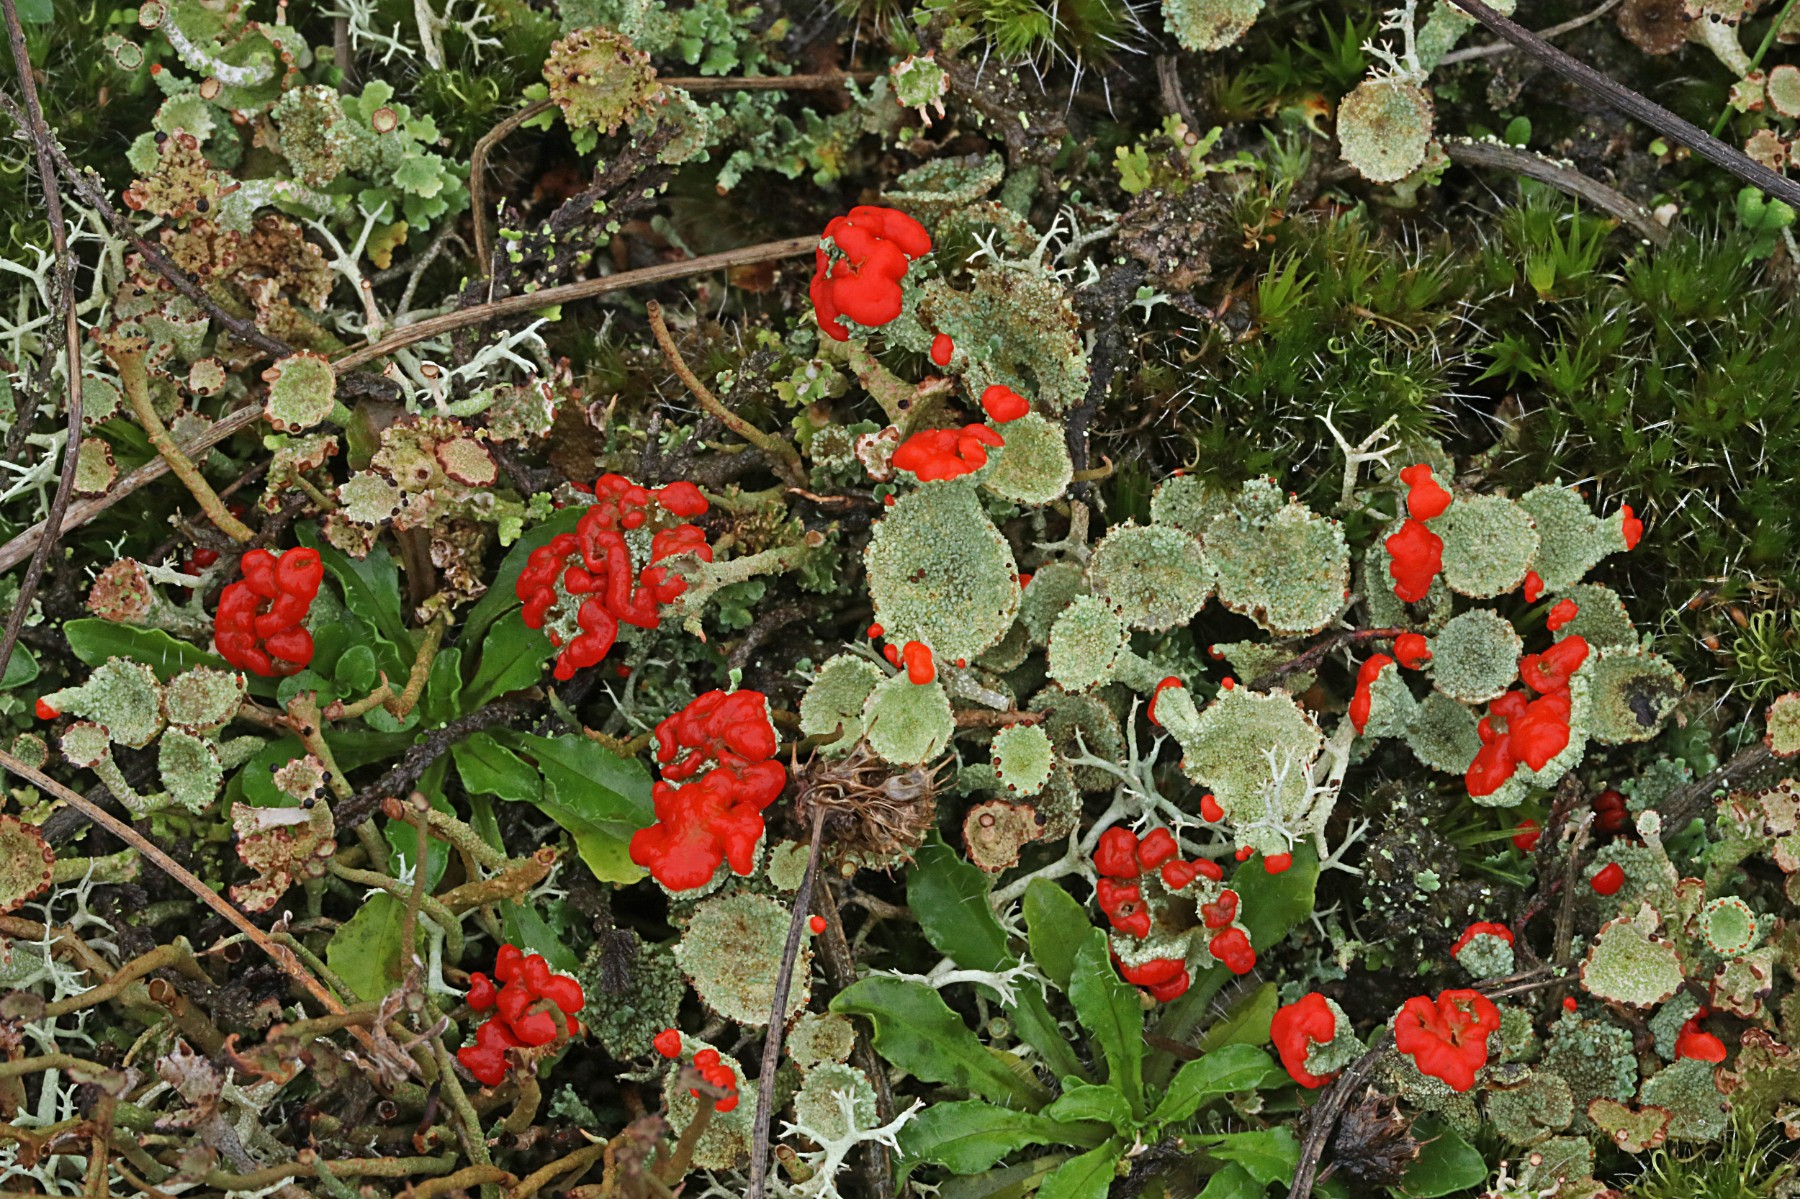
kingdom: Fungi
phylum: Ascomycota
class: Lecanoromycetes
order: Lecanorales
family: Cladoniaceae
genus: Cladonia
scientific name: Cladonia diversa
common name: rød bægerlav
